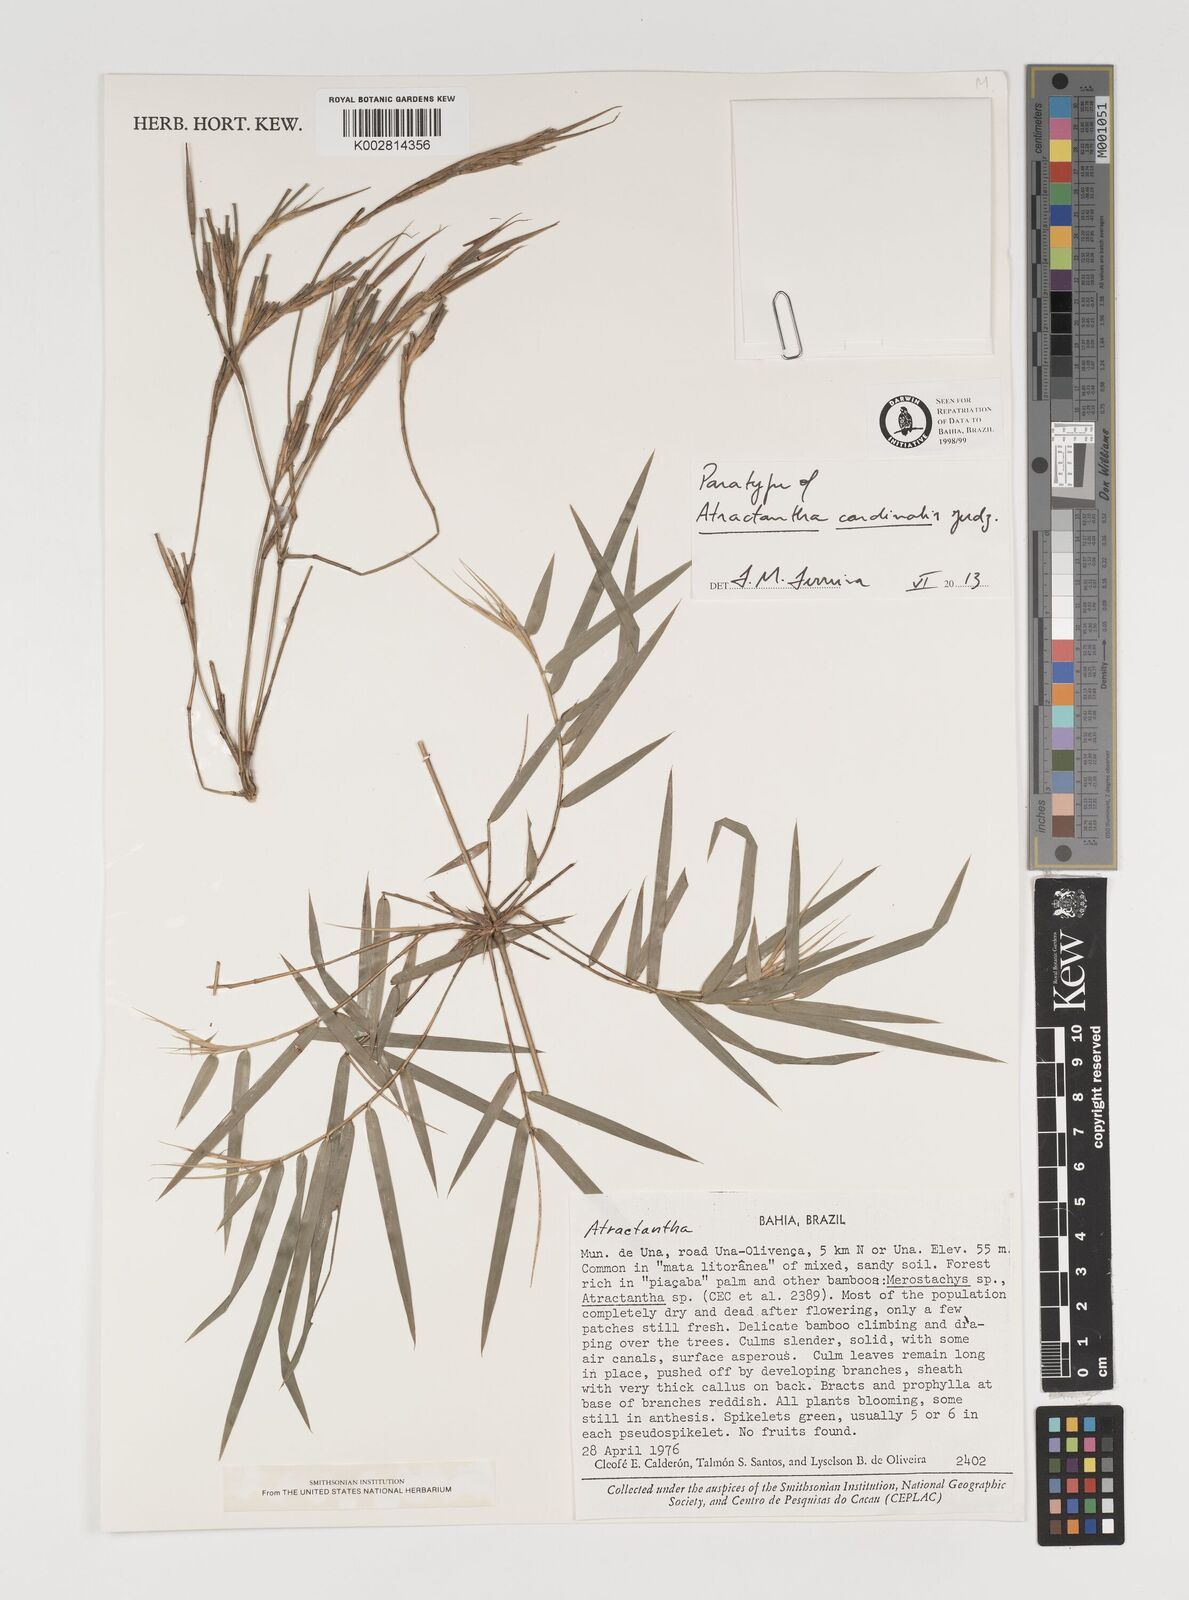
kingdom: Plantae
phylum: Tracheophyta
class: Liliopsida
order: Poales
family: Poaceae
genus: Atractantha
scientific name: Atractantha cardinalis
